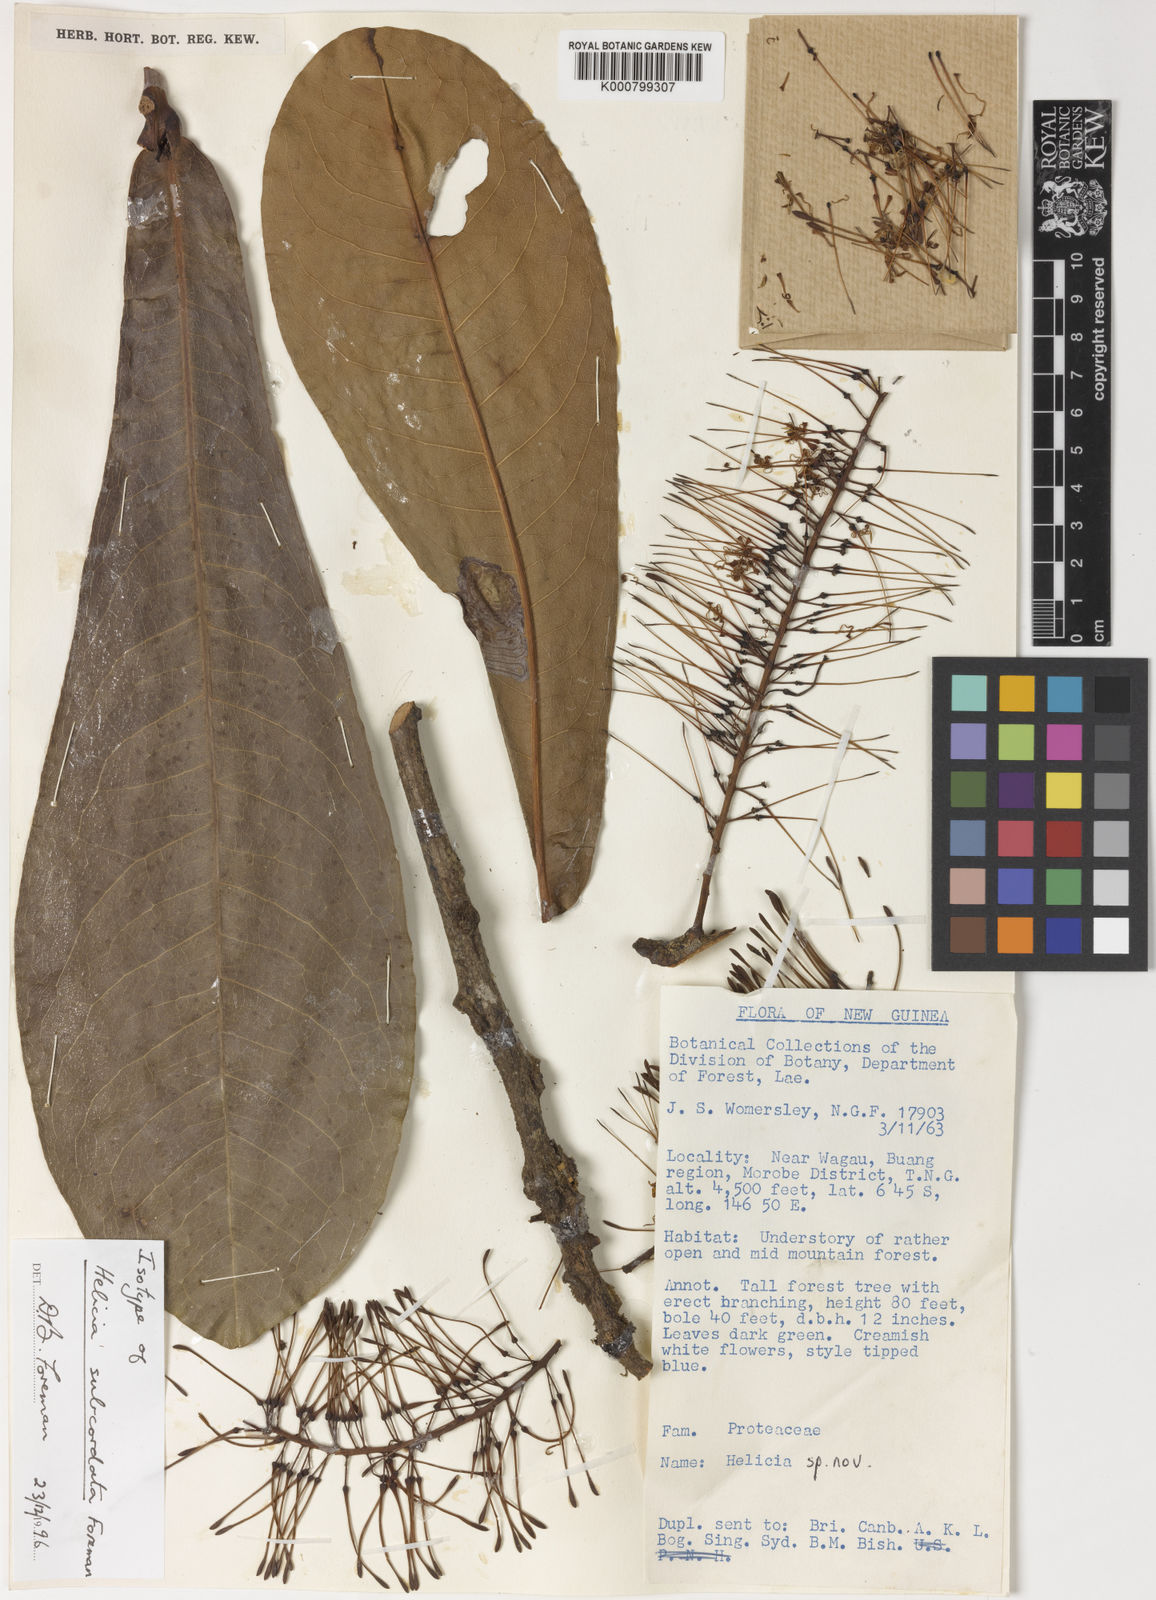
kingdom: Plantae
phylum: Tracheophyta
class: Magnoliopsida
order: Proteales
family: Proteaceae
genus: Helicia
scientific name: Helicia subcordata
